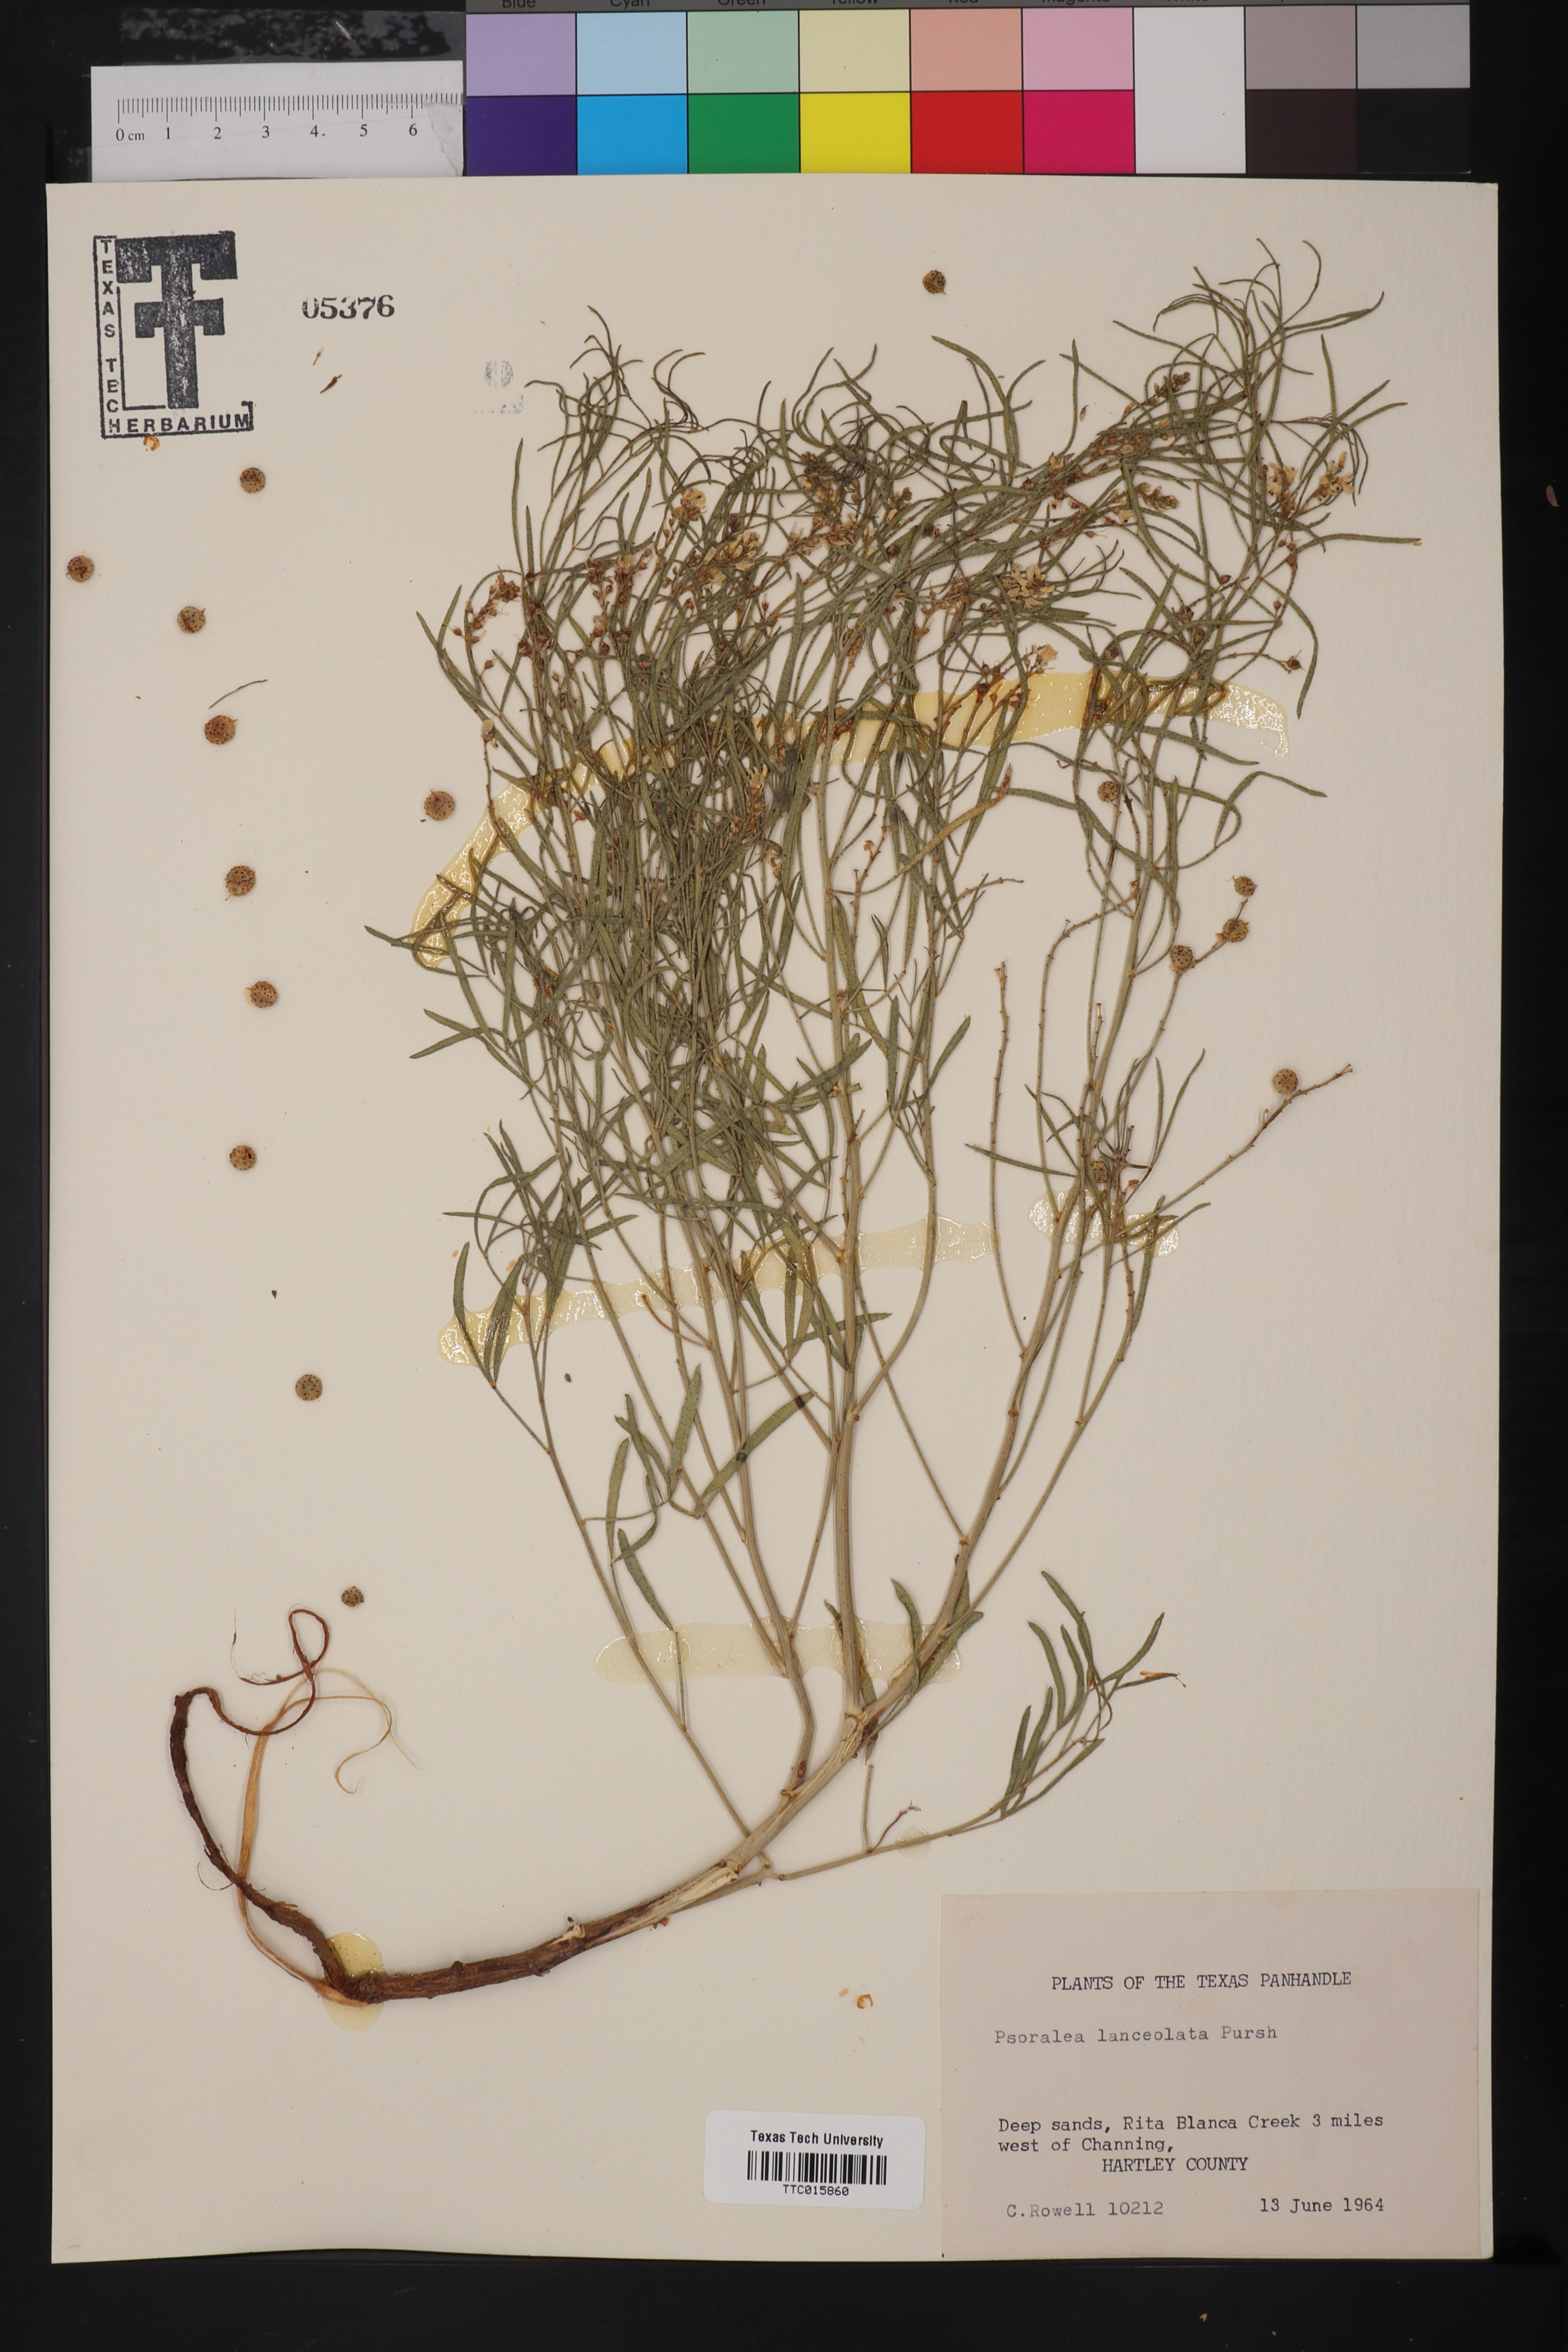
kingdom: Plantae
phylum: Tracheophyta
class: Magnoliopsida
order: Fabales
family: Fabaceae
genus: Ladeania
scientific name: Ladeania lanceolata
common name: Dune scurf-pea
